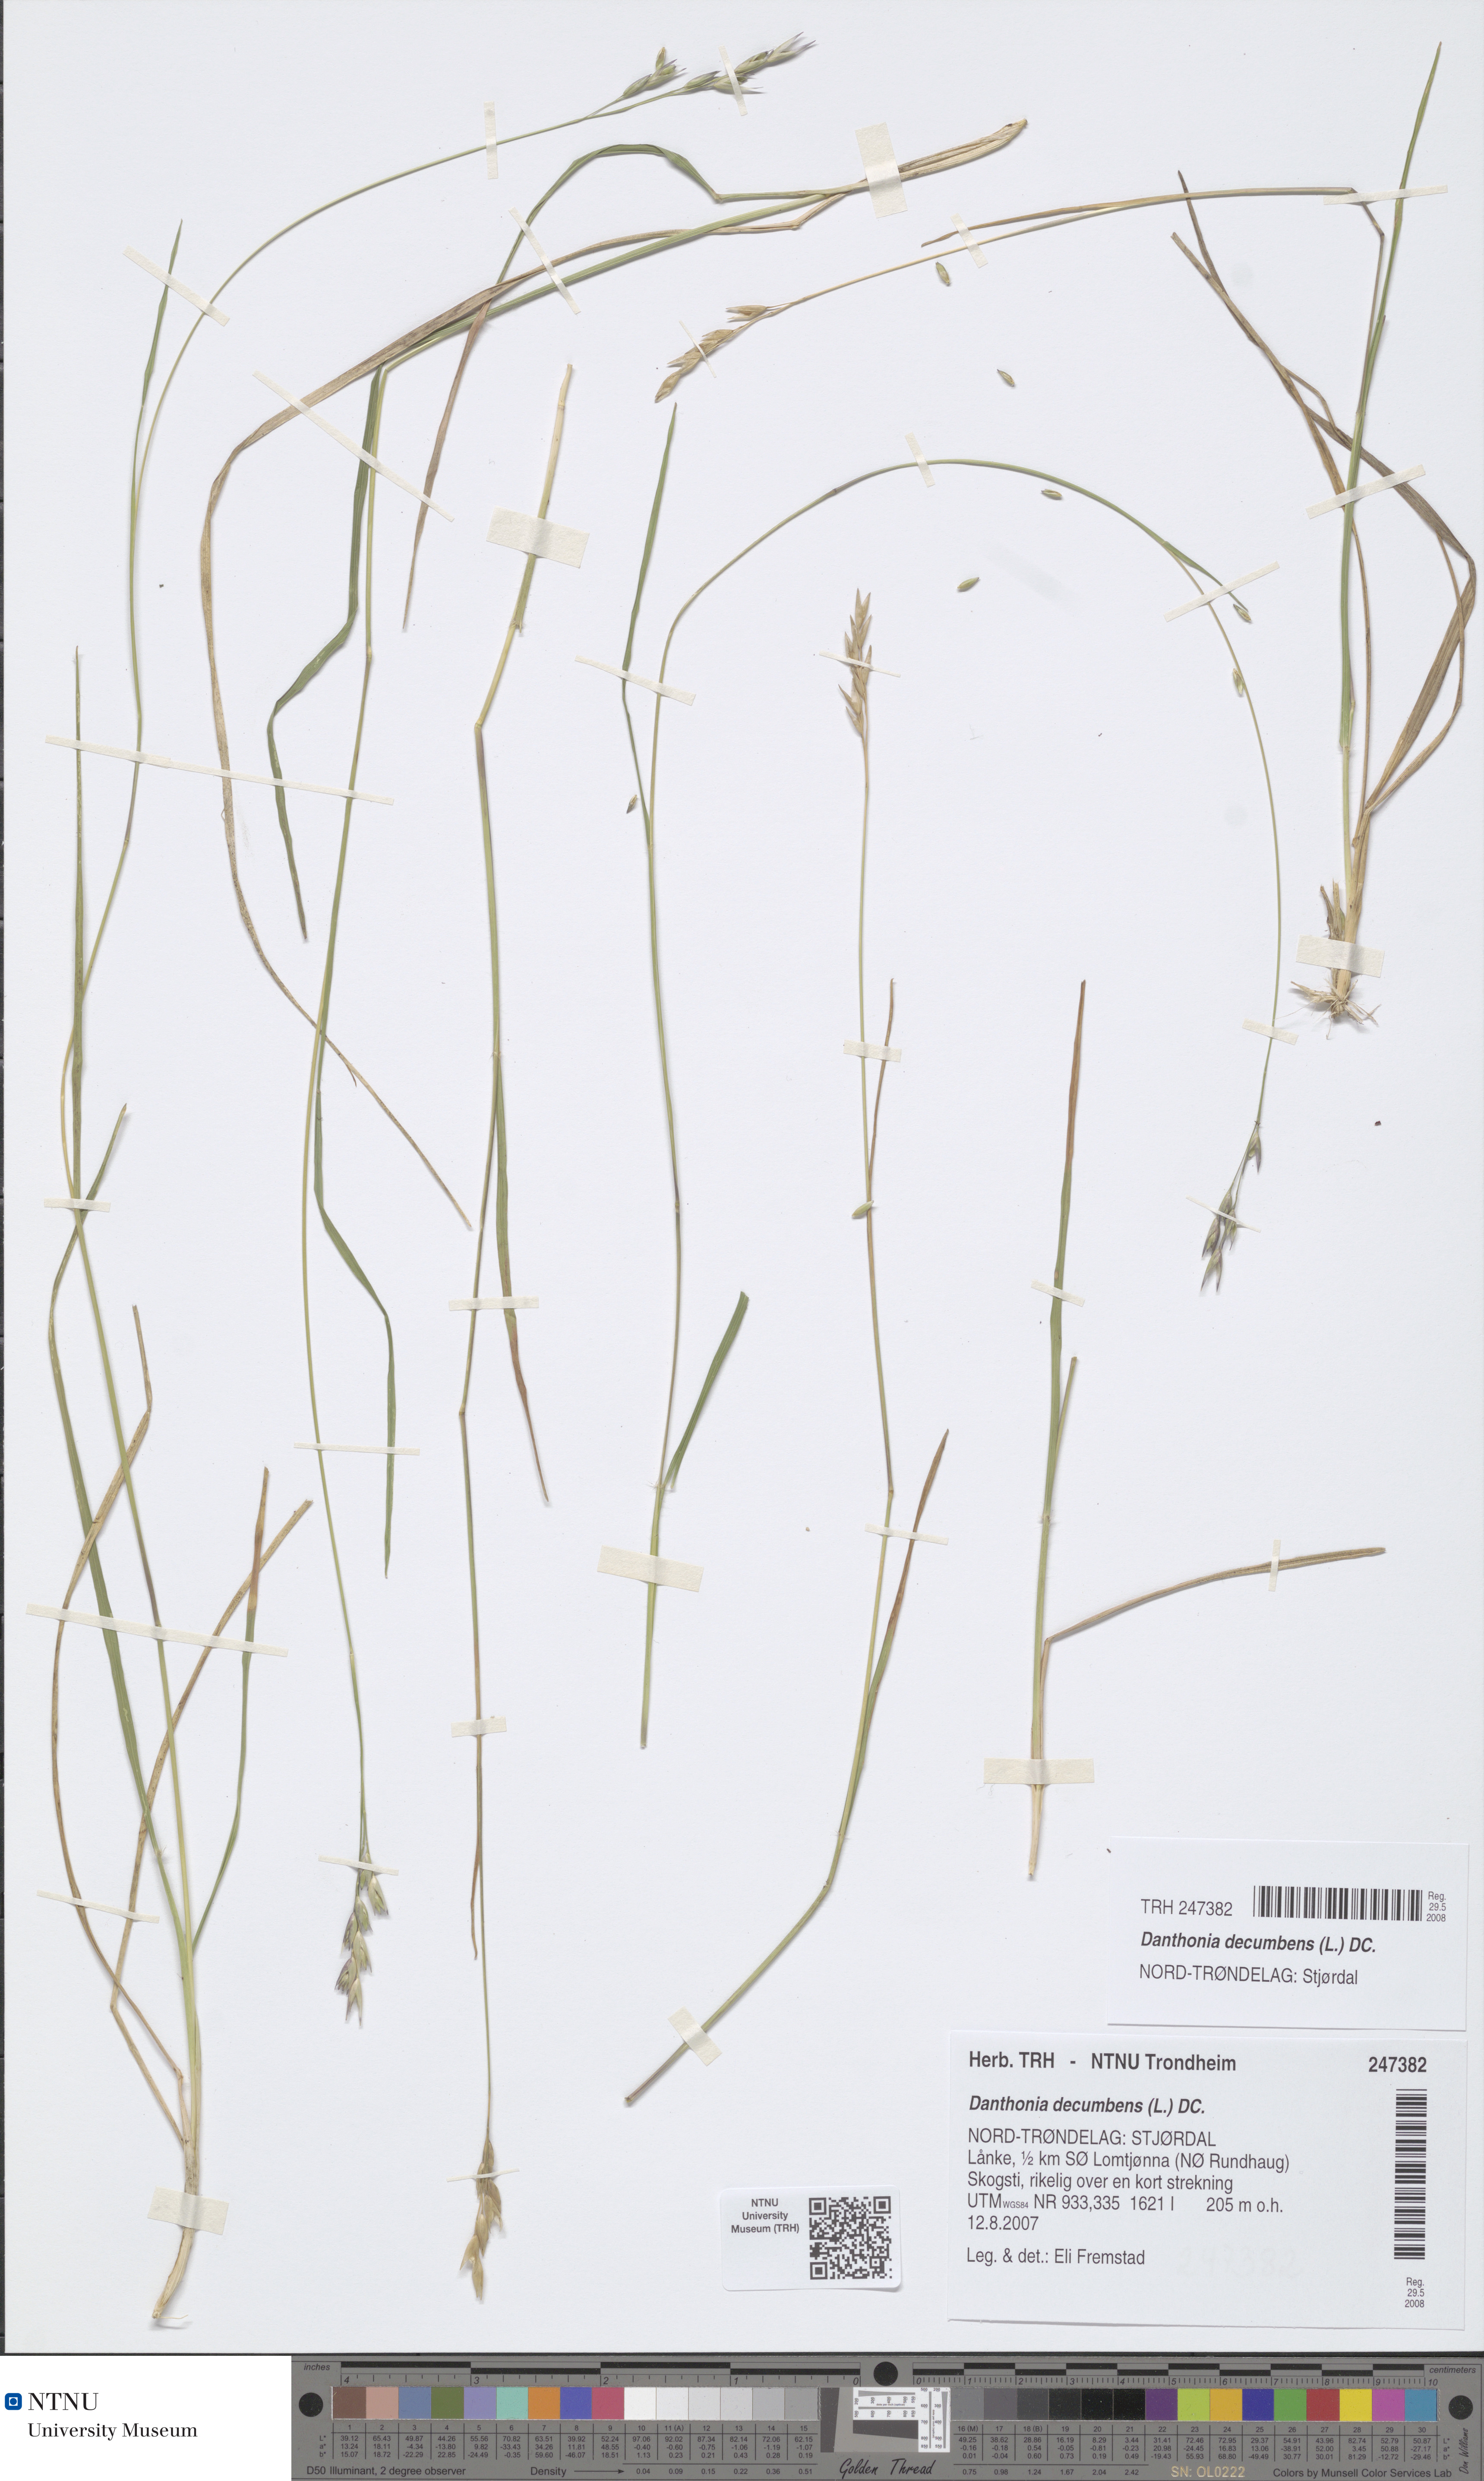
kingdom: Plantae
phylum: Tracheophyta
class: Liliopsida
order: Poales
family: Poaceae
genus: Danthonia
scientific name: Danthonia decumbens
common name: Common heathgrass
